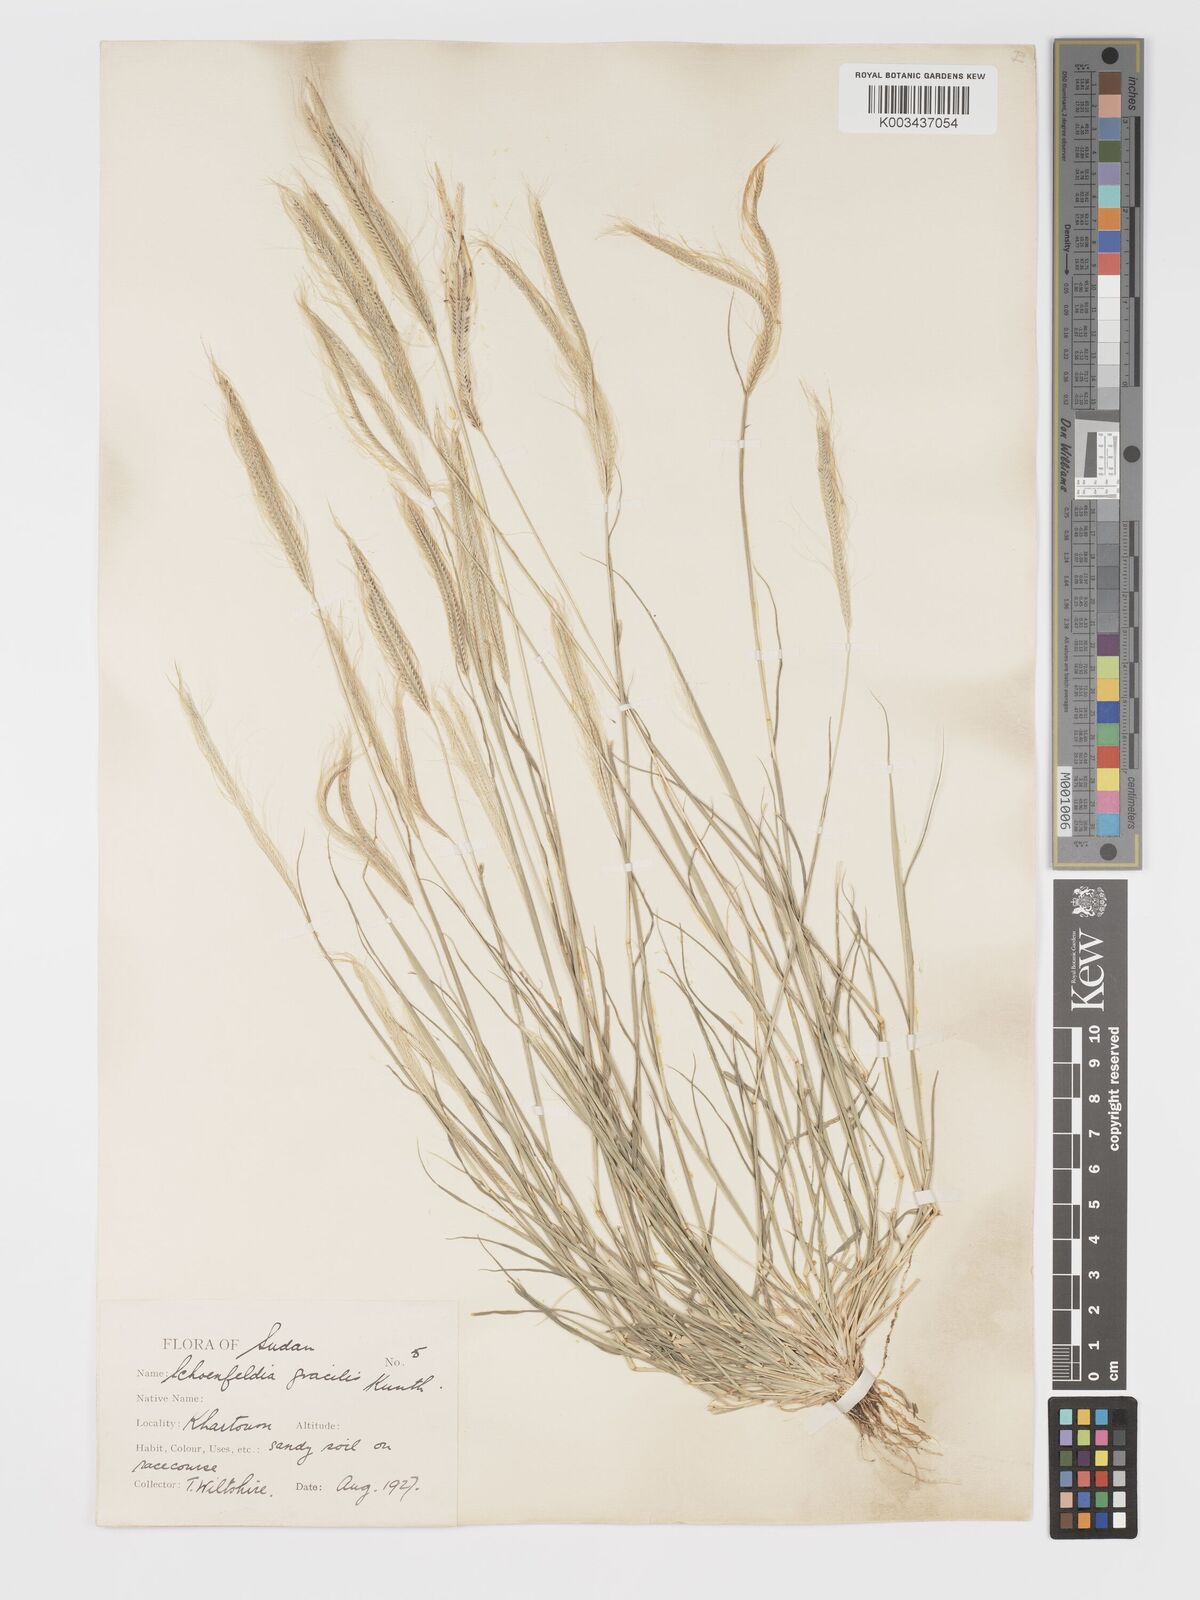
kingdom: Plantae
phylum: Tracheophyta
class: Liliopsida
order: Poales
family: Poaceae
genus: Schoenefeldia
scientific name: Schoenefeldia gracilis
